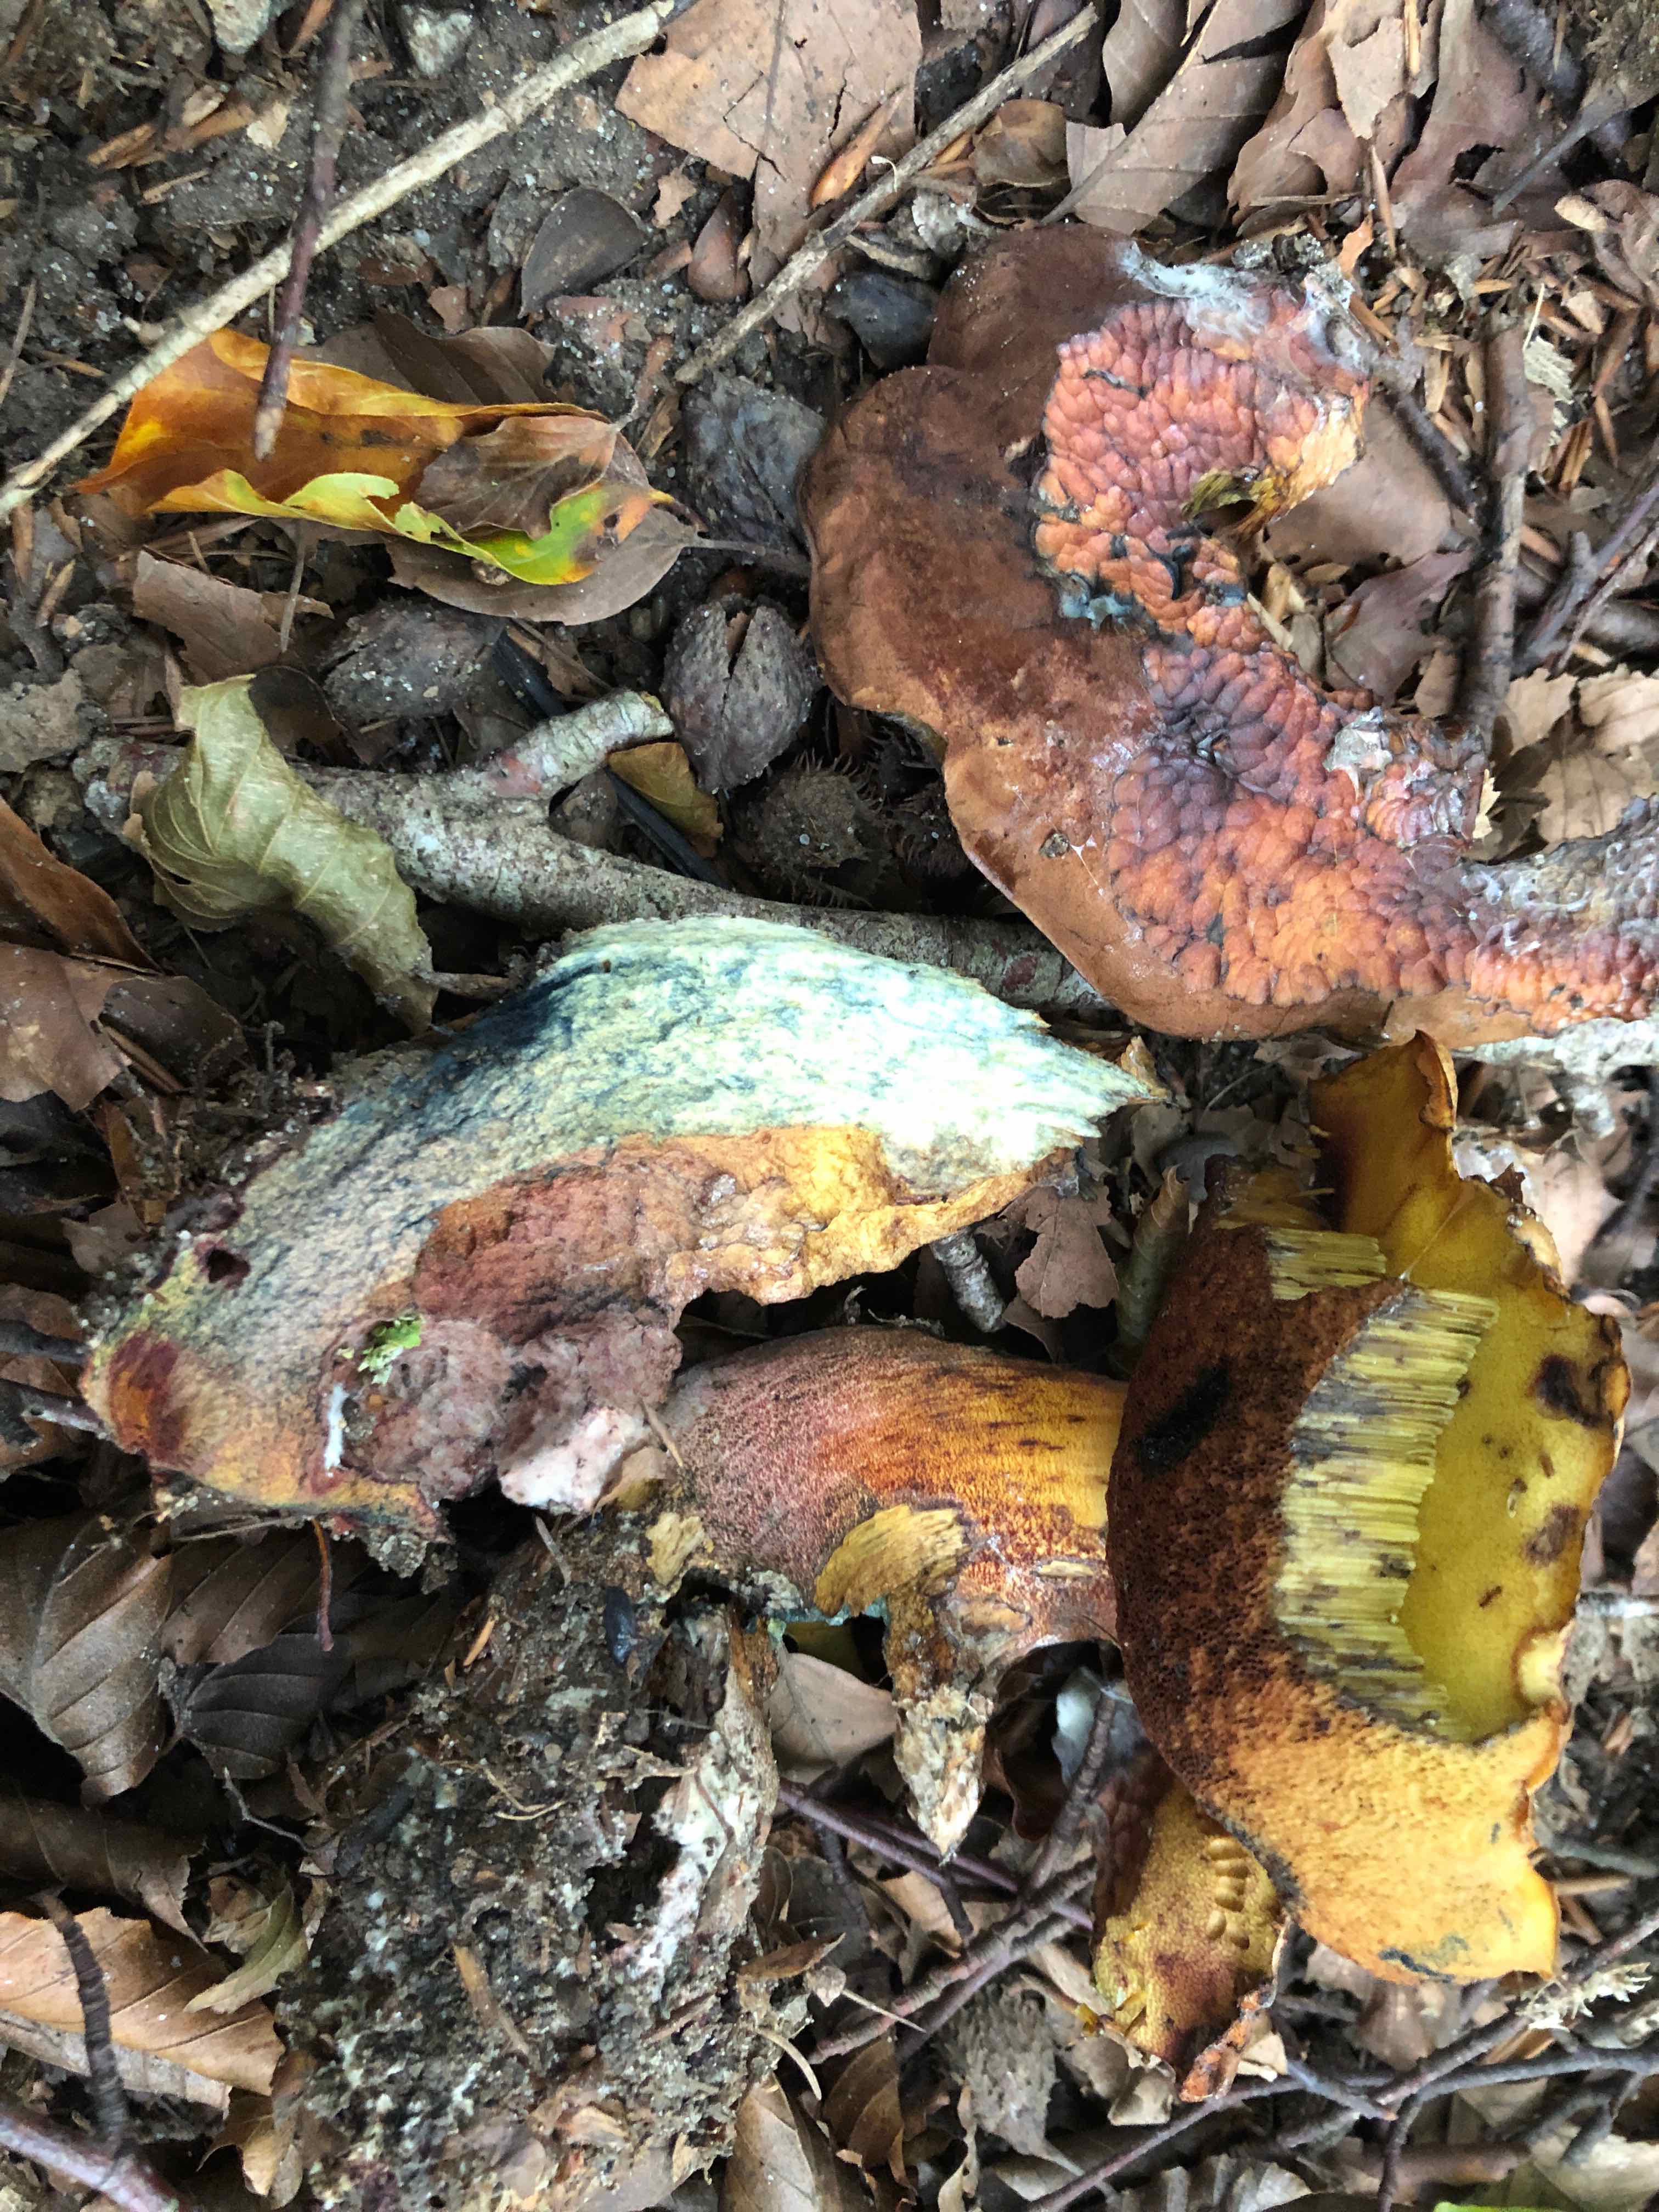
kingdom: Fungi
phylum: Basidiomycota
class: Agaricomycetes
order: Boletales
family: Boletaceae
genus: Neoboletus
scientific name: Neoboletus erythropus
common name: punktstokket indigorørhat
